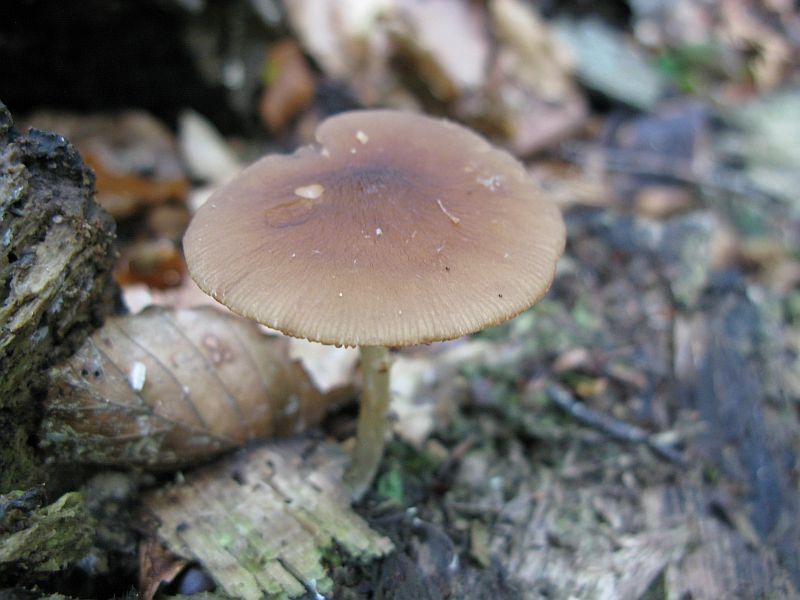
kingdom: Fungi
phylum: Basidiomycota
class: Agaricomycetes
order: Agaricales
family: Pluteaceae
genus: Pluteus
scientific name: Pluteus phlebophorus
